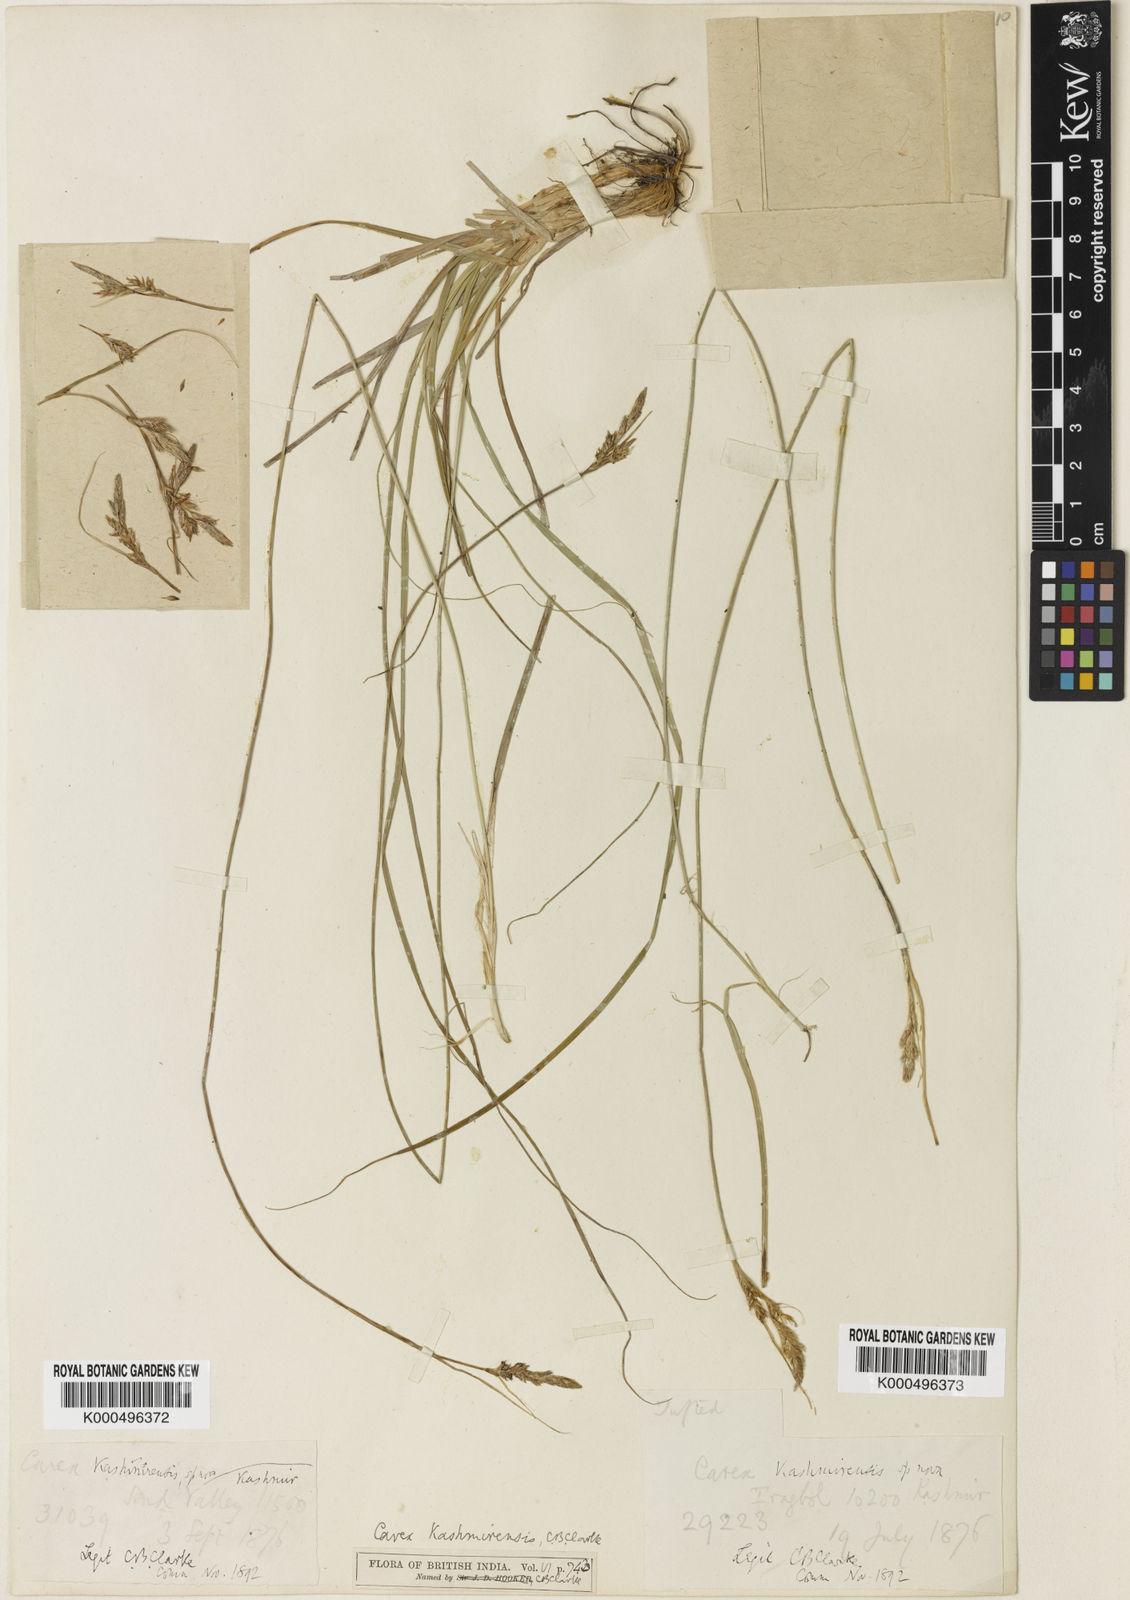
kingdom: Plantae
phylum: Tracheophyta
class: Liliopsida
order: Poales
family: Cyperaceae
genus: Carex
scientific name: Carex kashmirensis
